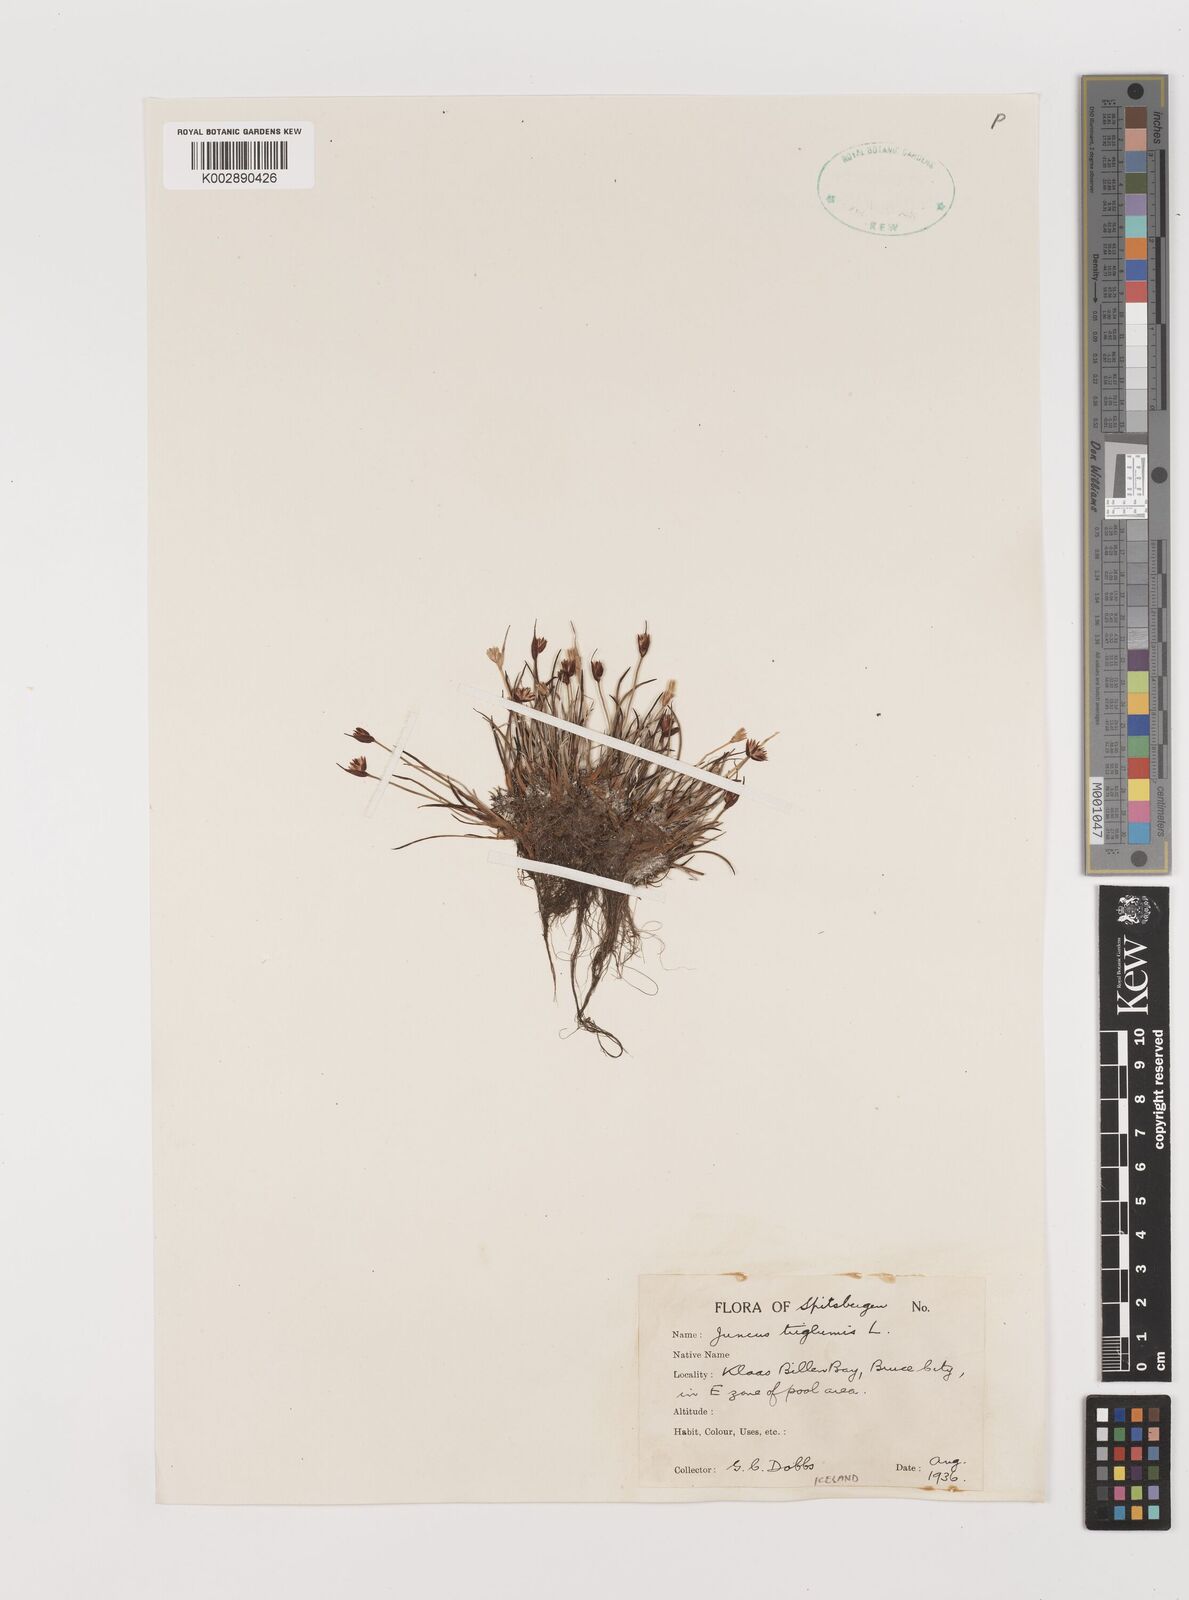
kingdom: Plantae
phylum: Tracheophyta
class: Liliopsida
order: Poales
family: Juncaceae
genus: Juncus
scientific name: Juncus triglumis
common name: Three-flowered rush
